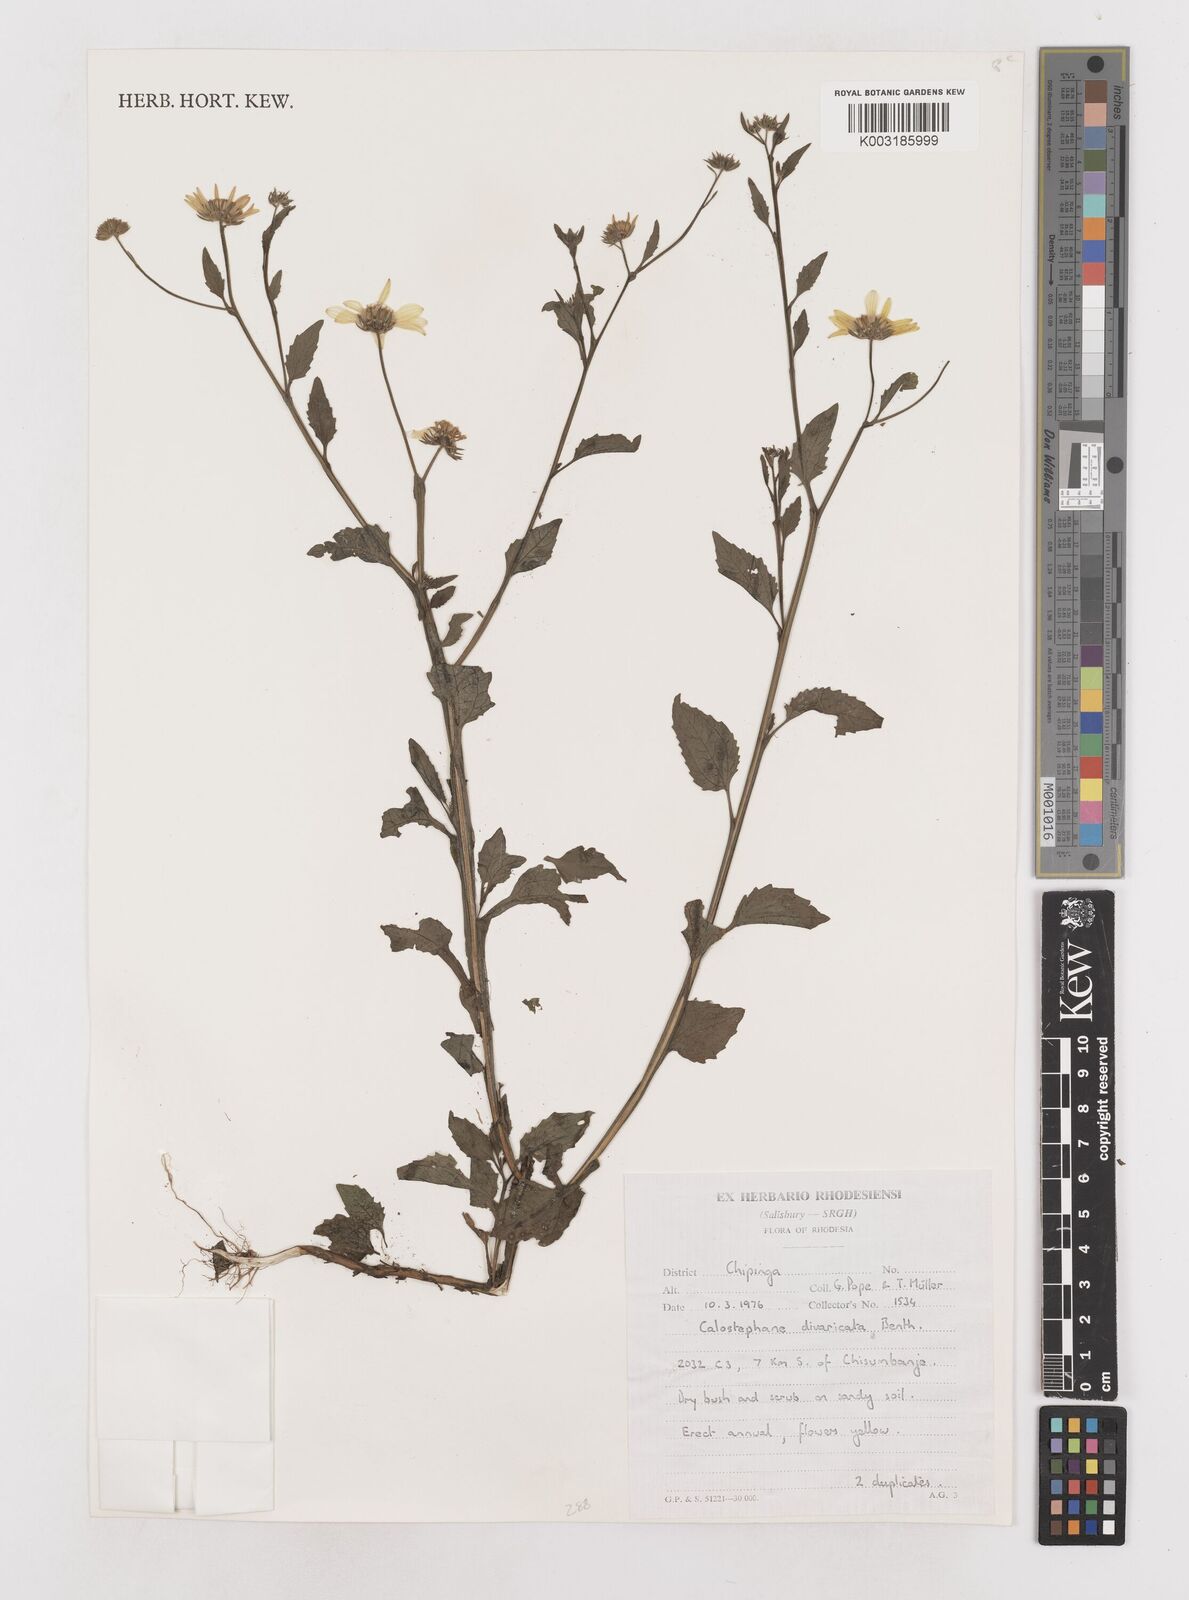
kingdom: Plantae
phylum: Tracheophyta
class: Magnoliopsida
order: Asterales
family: Asteraceae
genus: Calostephane
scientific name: Calostephane divaricata
